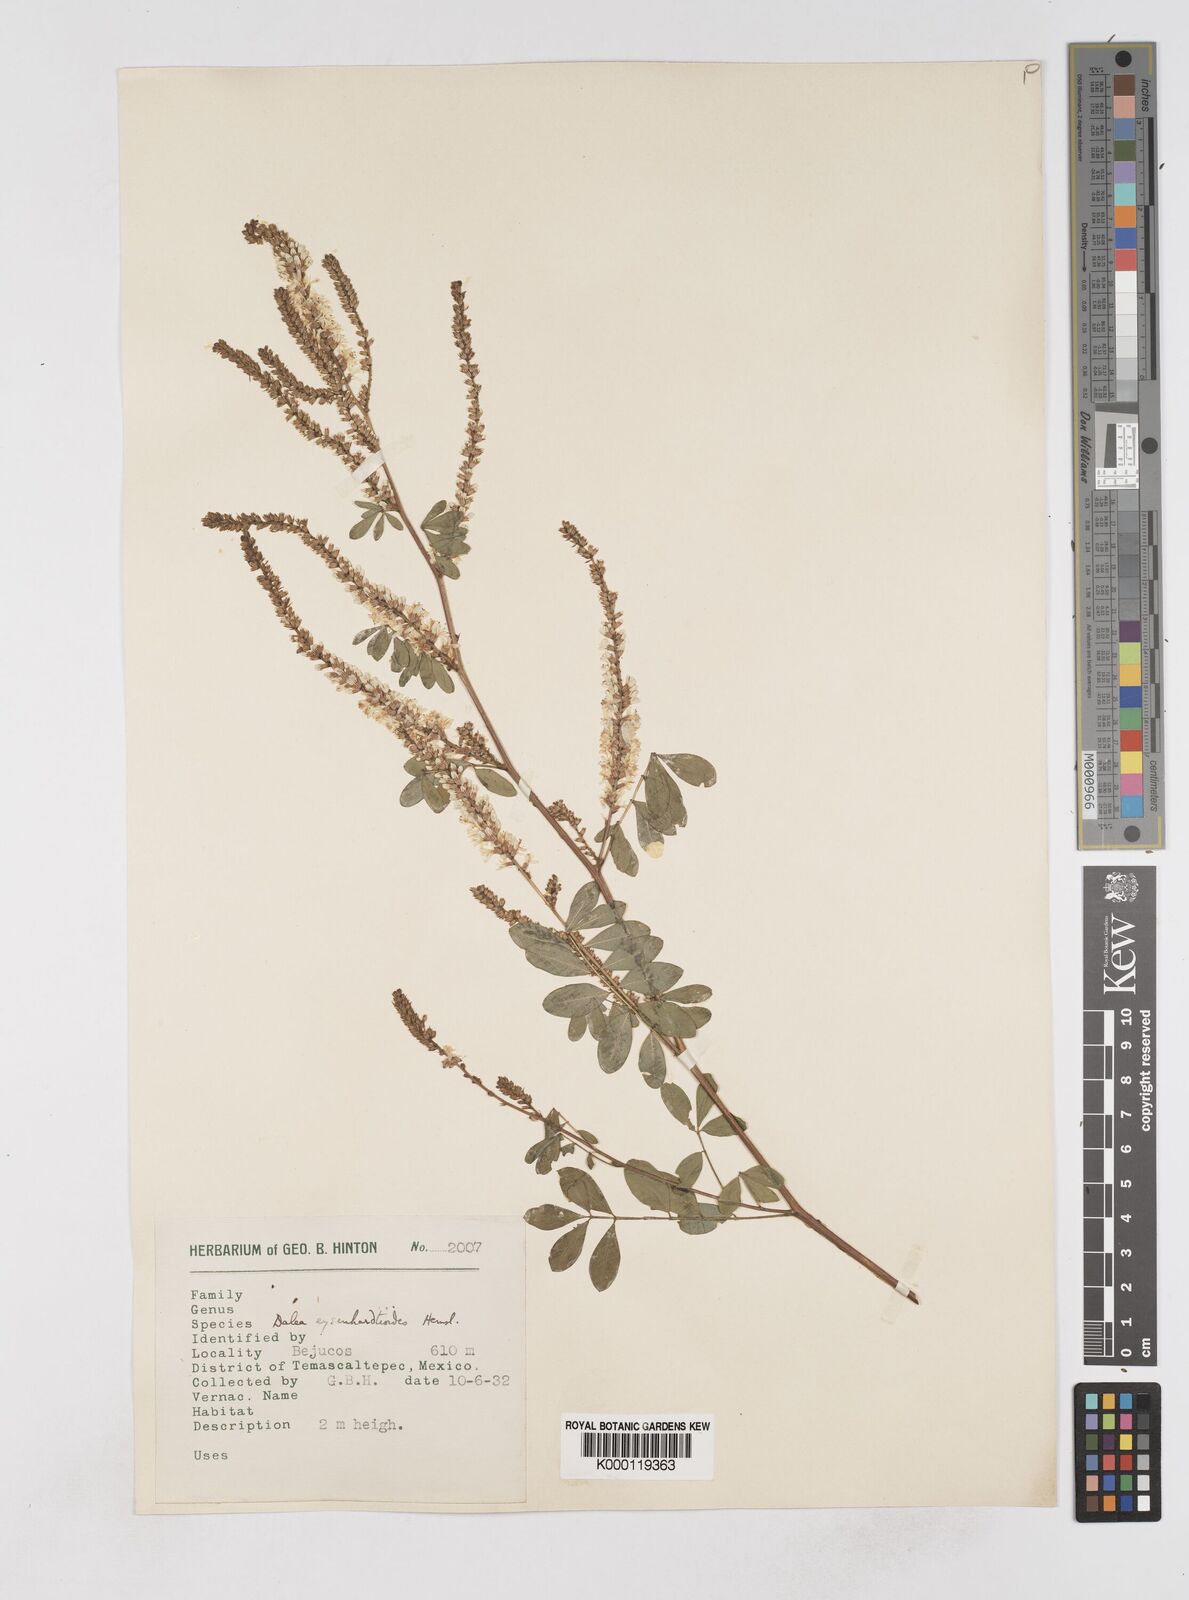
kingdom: Plantae
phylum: Tracheophyta
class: Magnoliopsida
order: Fabales
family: Fabaceae
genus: Dalea
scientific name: Dalea
